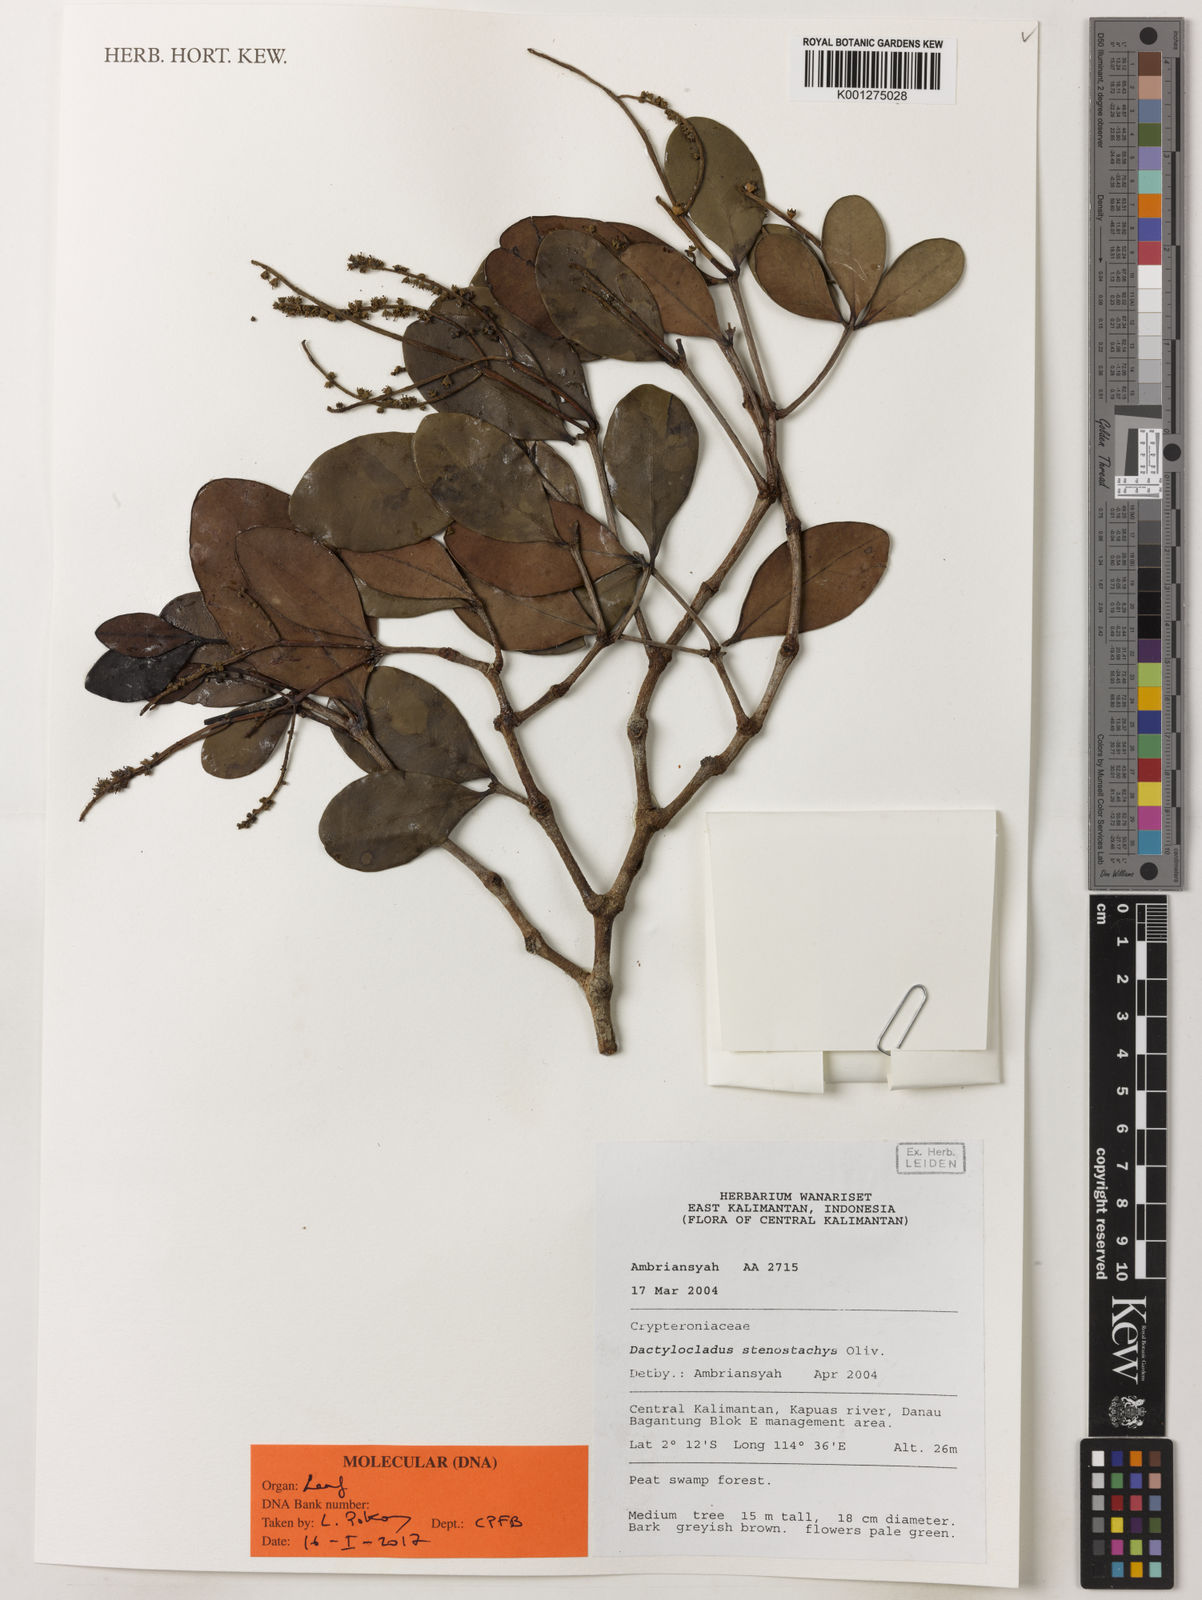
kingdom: Plantae
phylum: Tracheophyta
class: Magnoliopsida
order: Myrtales
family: Crypteroniaceae
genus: Dactylocladus
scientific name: Dactylocladus stenostachys
